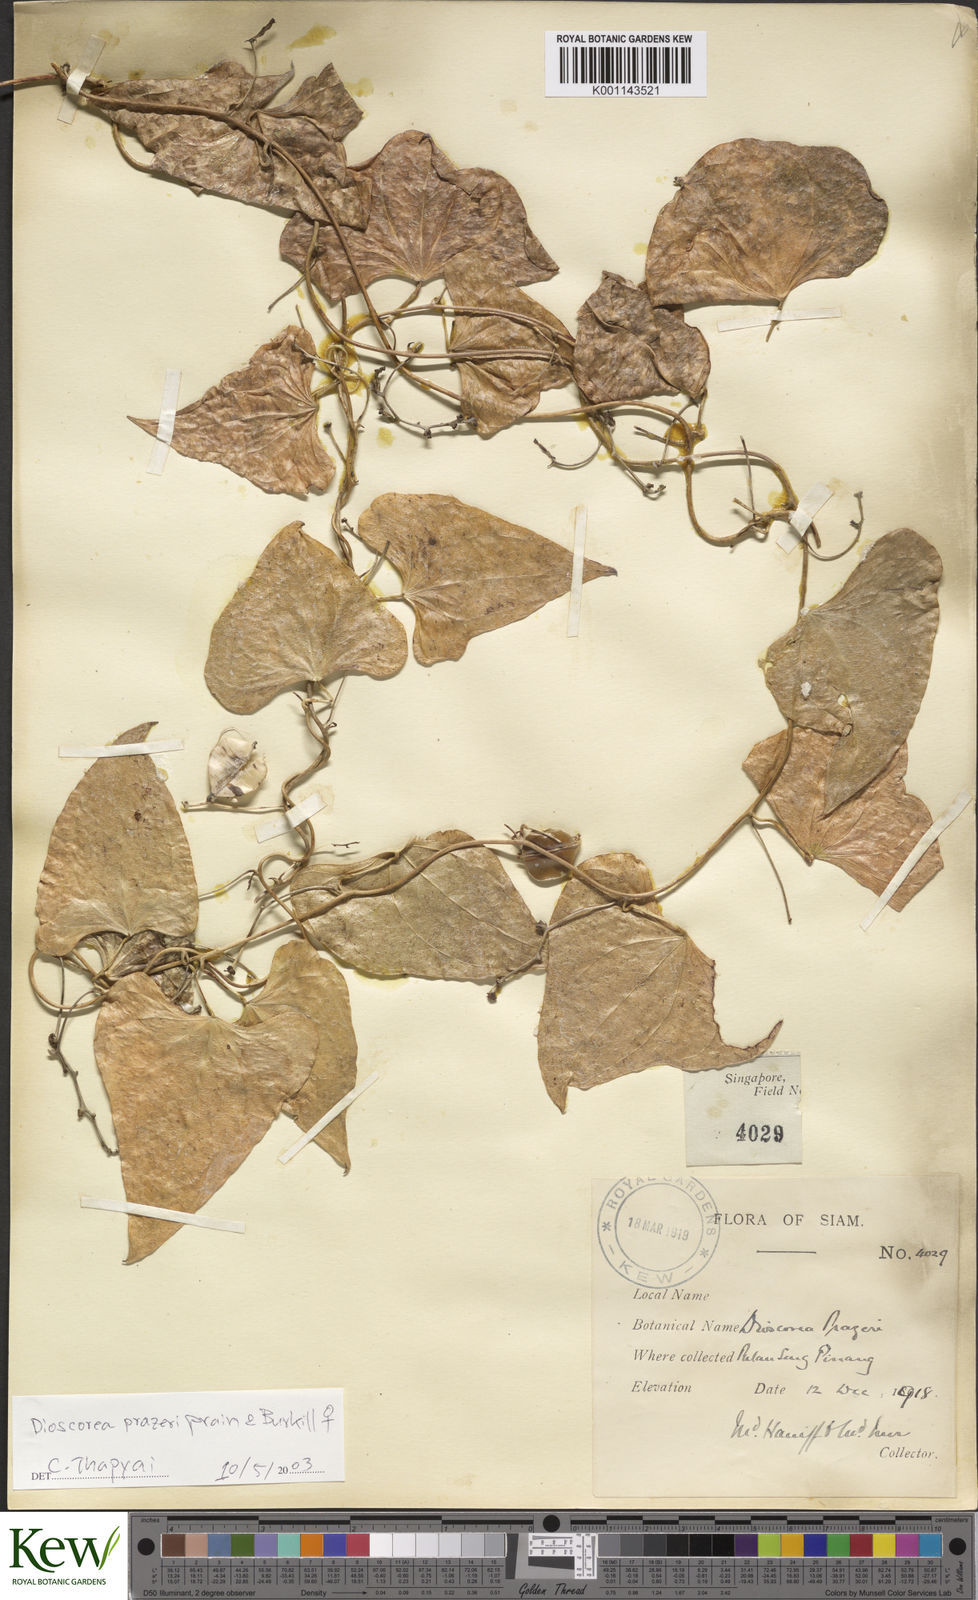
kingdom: Plantae
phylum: Tracheophyta
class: Liliopsida
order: Dioscoreales
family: Dioscoreaceae
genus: Dioscorea
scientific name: Dioscorea prazeri
